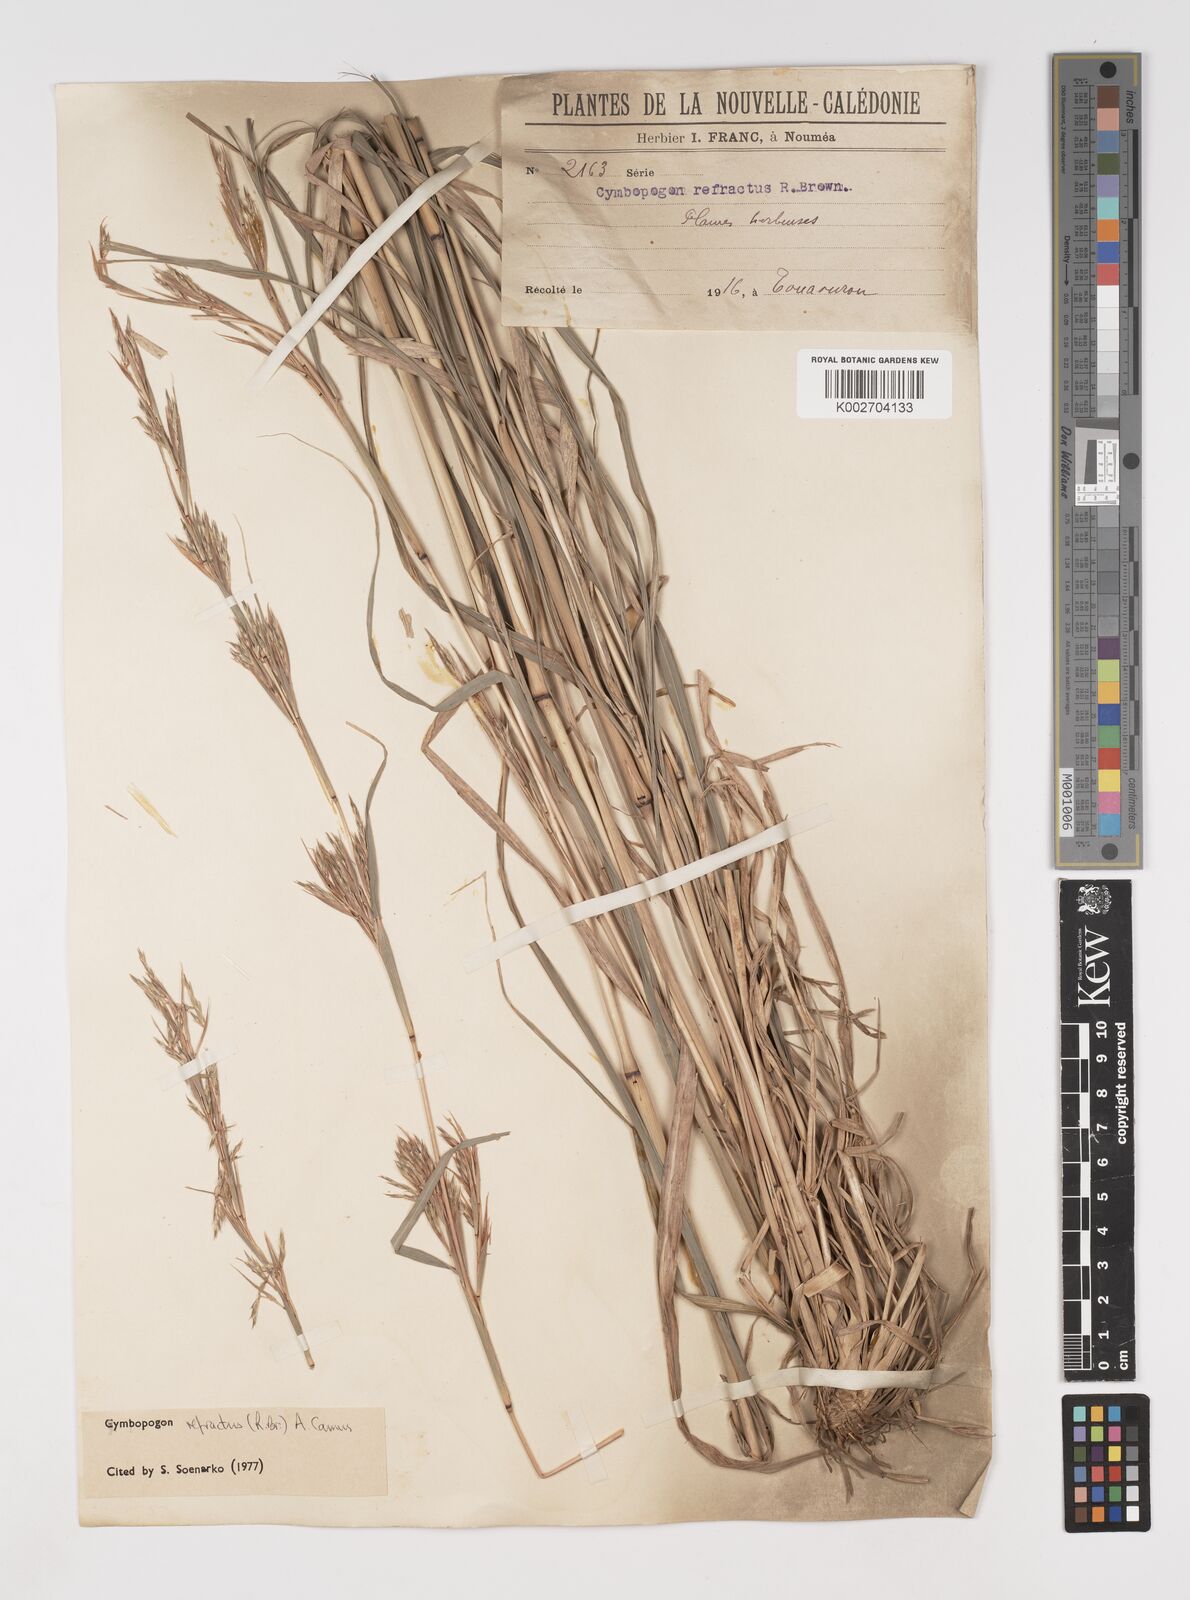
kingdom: Plantae
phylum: Tracheophyta
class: Liliopsida
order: Poales
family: Poaceae
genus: Cymbopogon
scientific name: Cymbopogon refractus
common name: Barbwire grass
